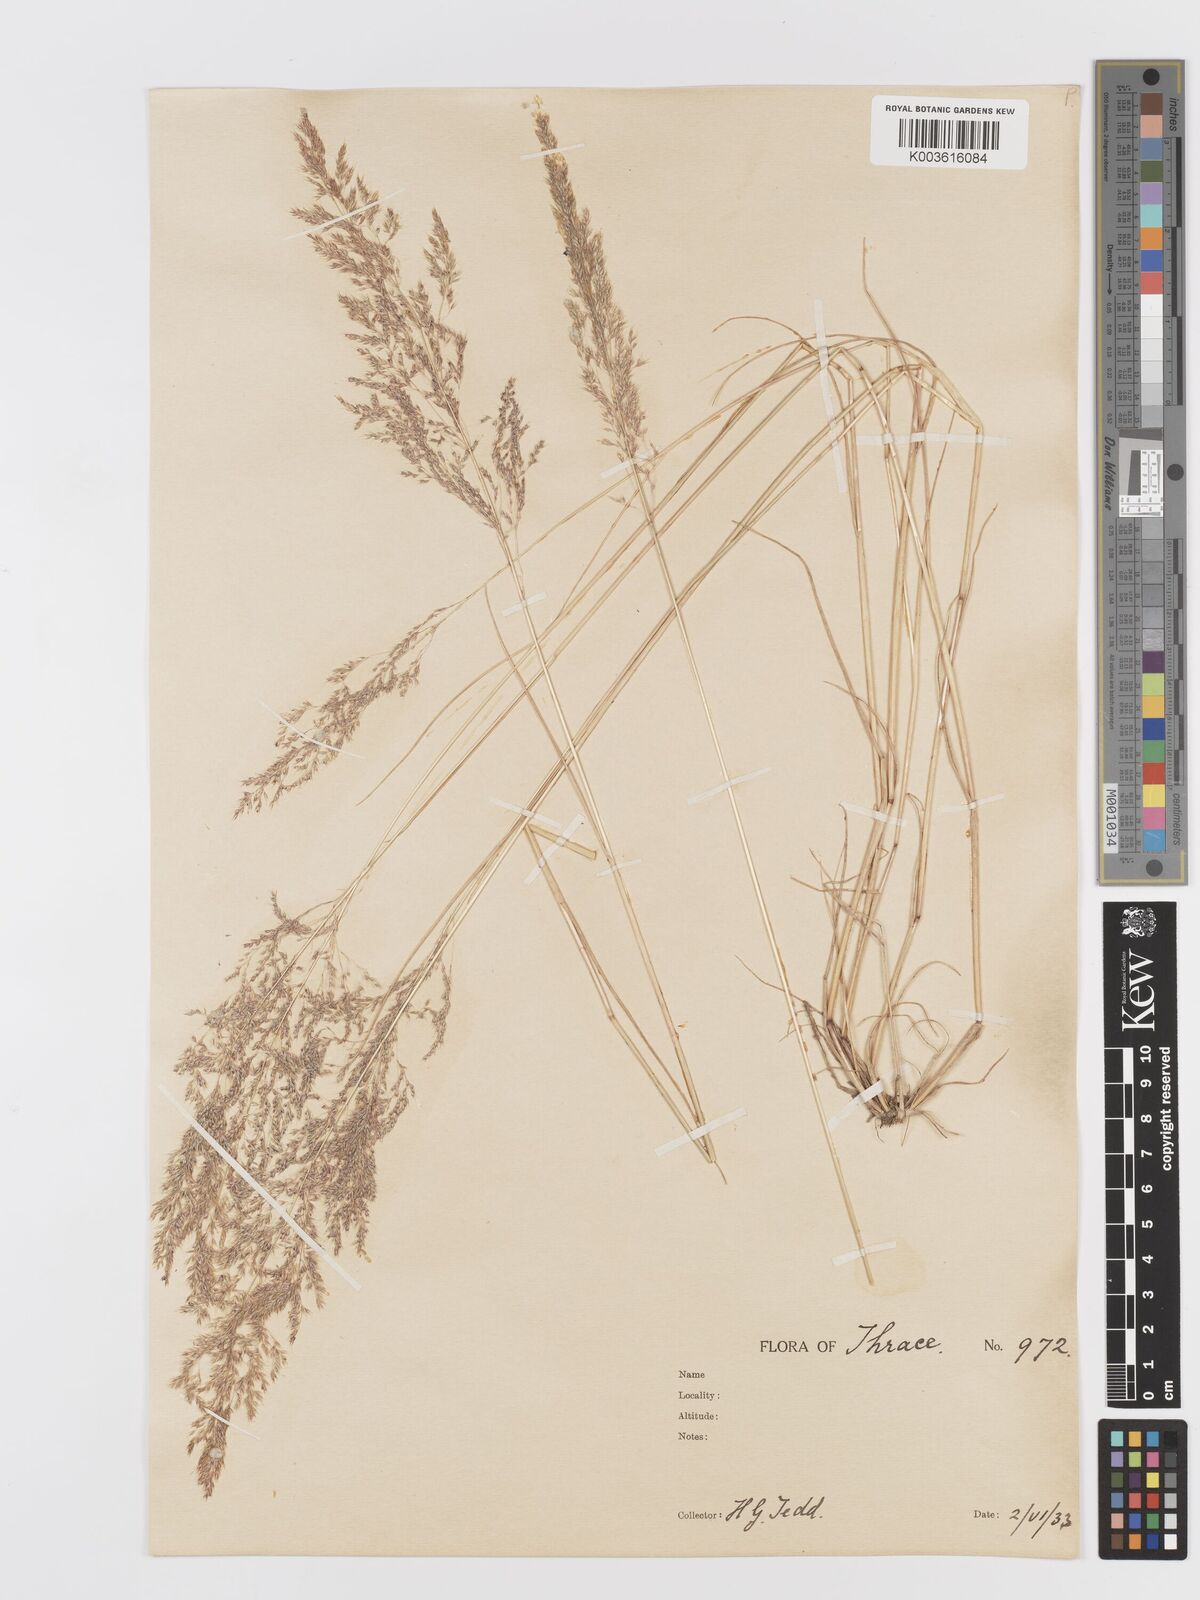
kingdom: Plantae
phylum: Tracheophyta
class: Liliopsida
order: Poales
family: Poaceae
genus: Parvotrisetum
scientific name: Parvotrisetum myrianthum
